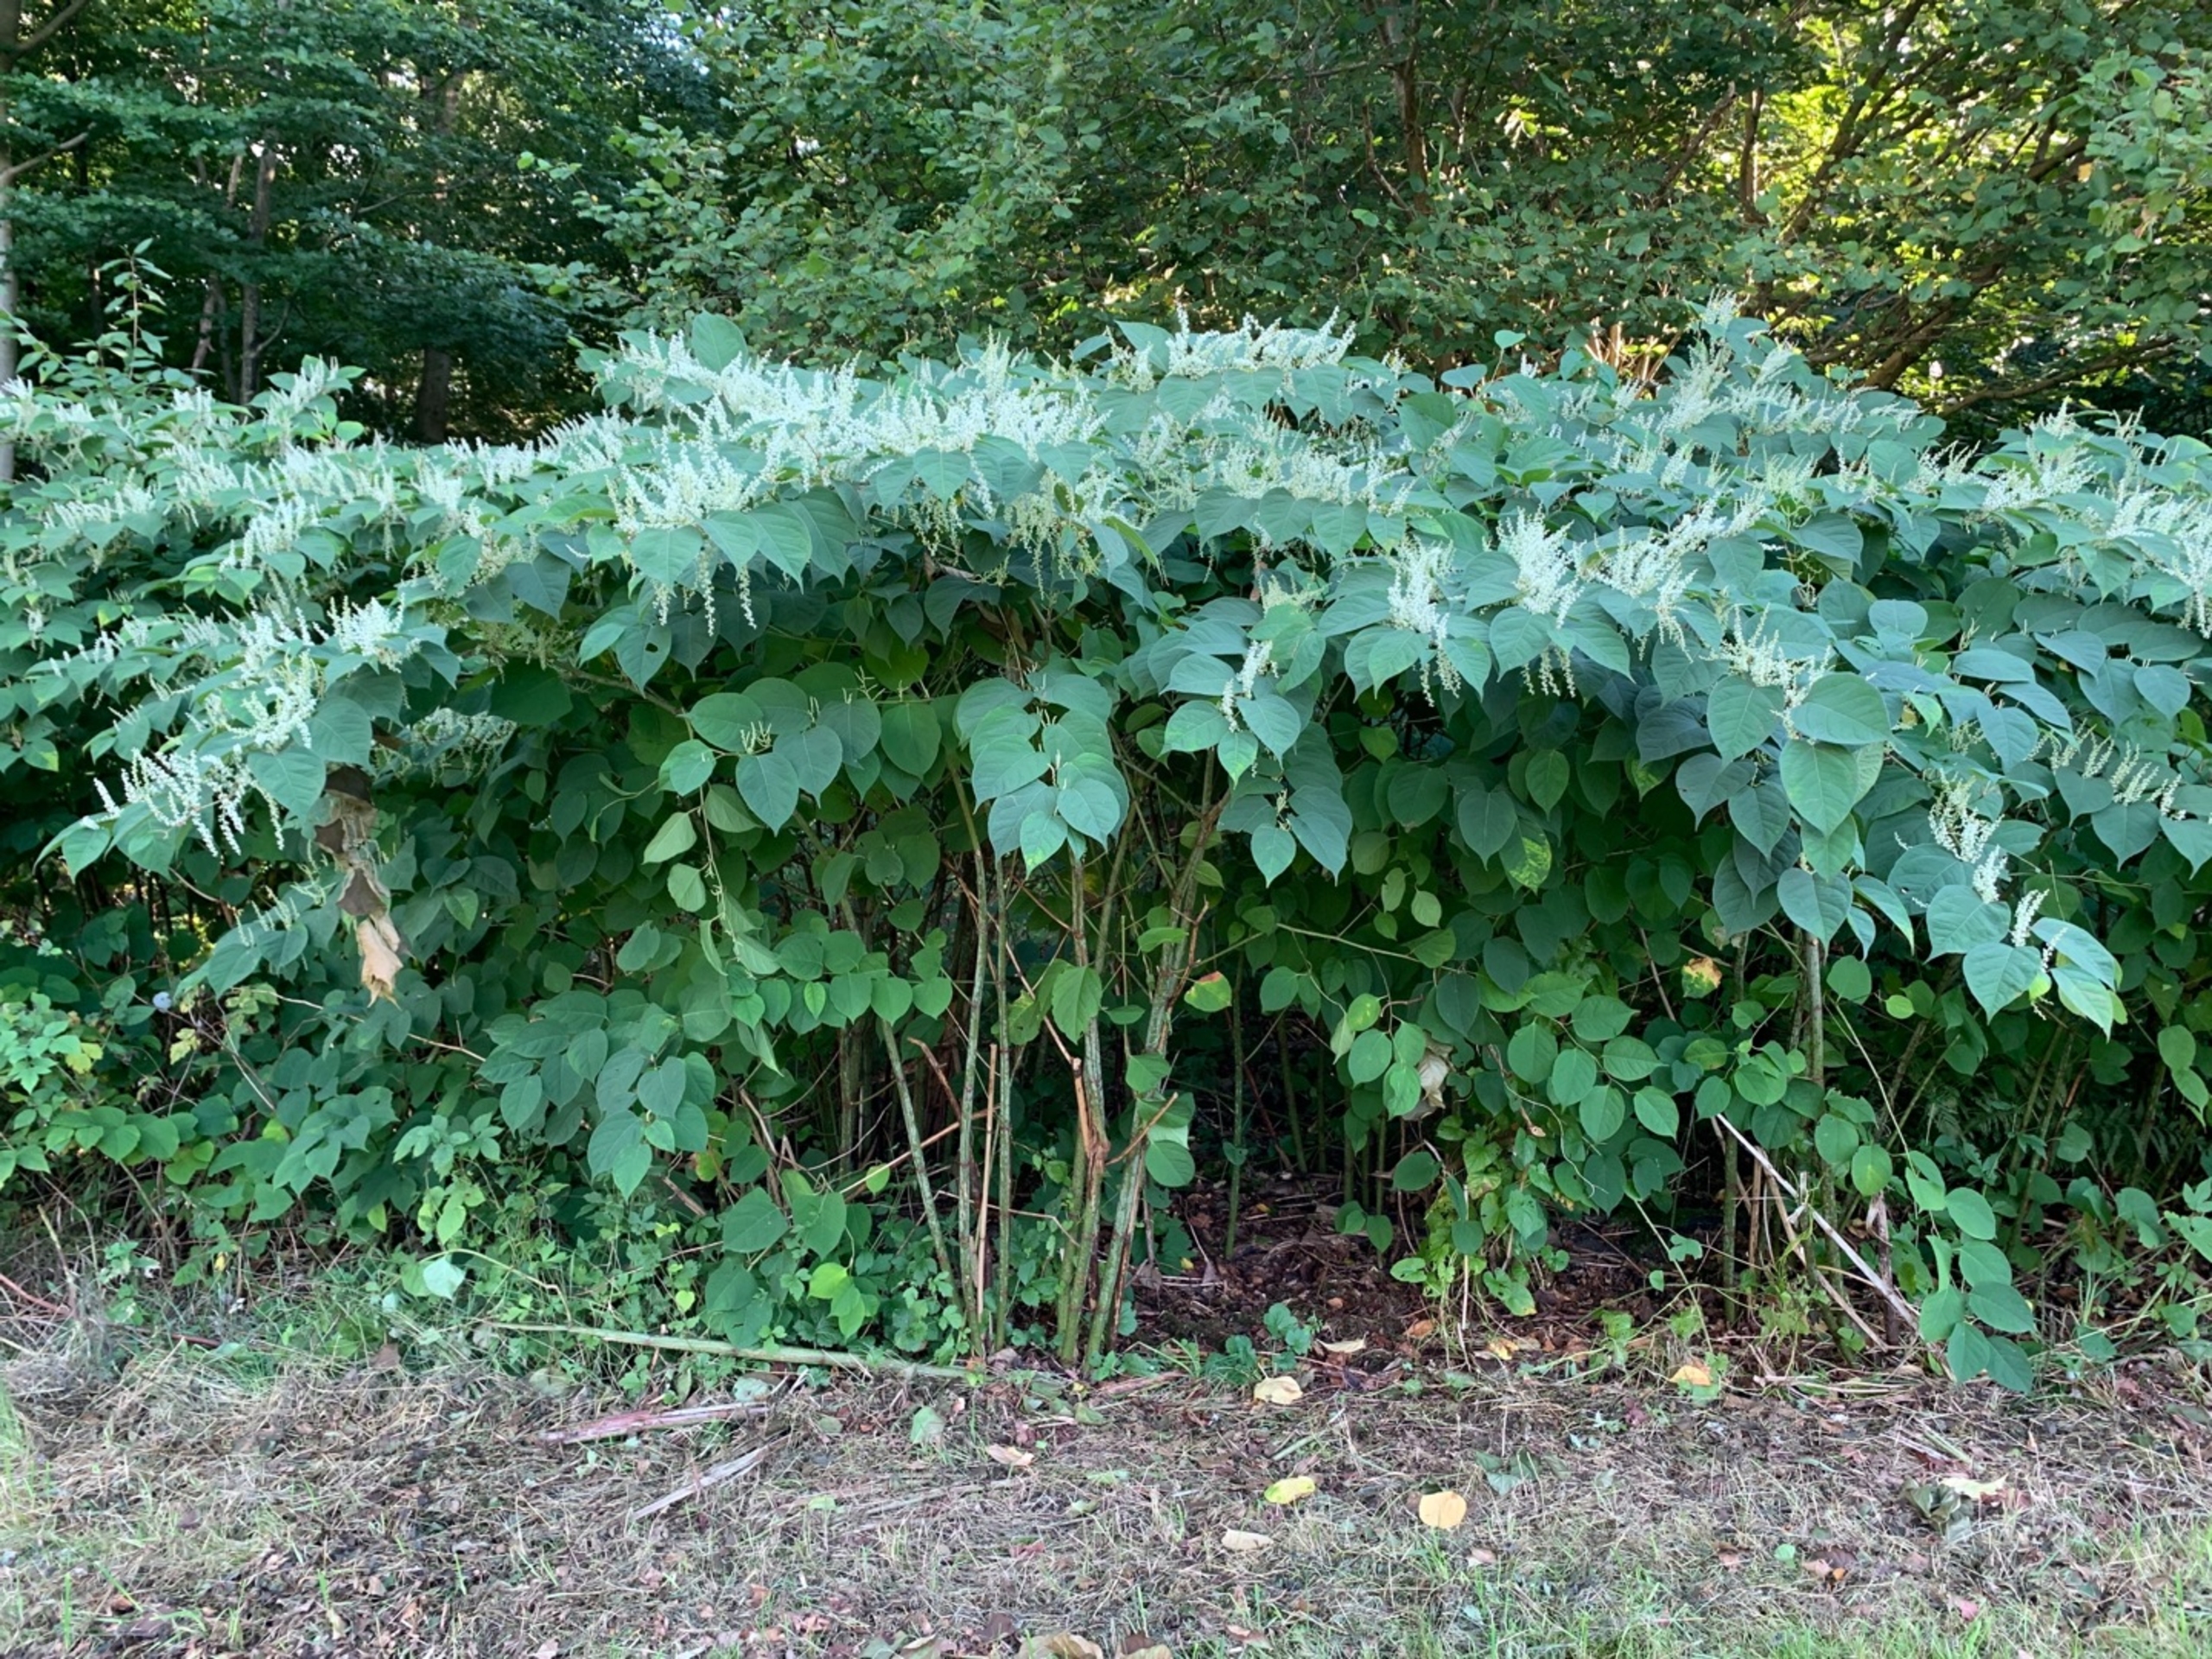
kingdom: Plantae
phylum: Tracheophyta
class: Magnoliopsida
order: Caryophyllales
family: Polygonaceae
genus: Reynoutria
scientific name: Reynoutria japonica
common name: Japan-pileurt
